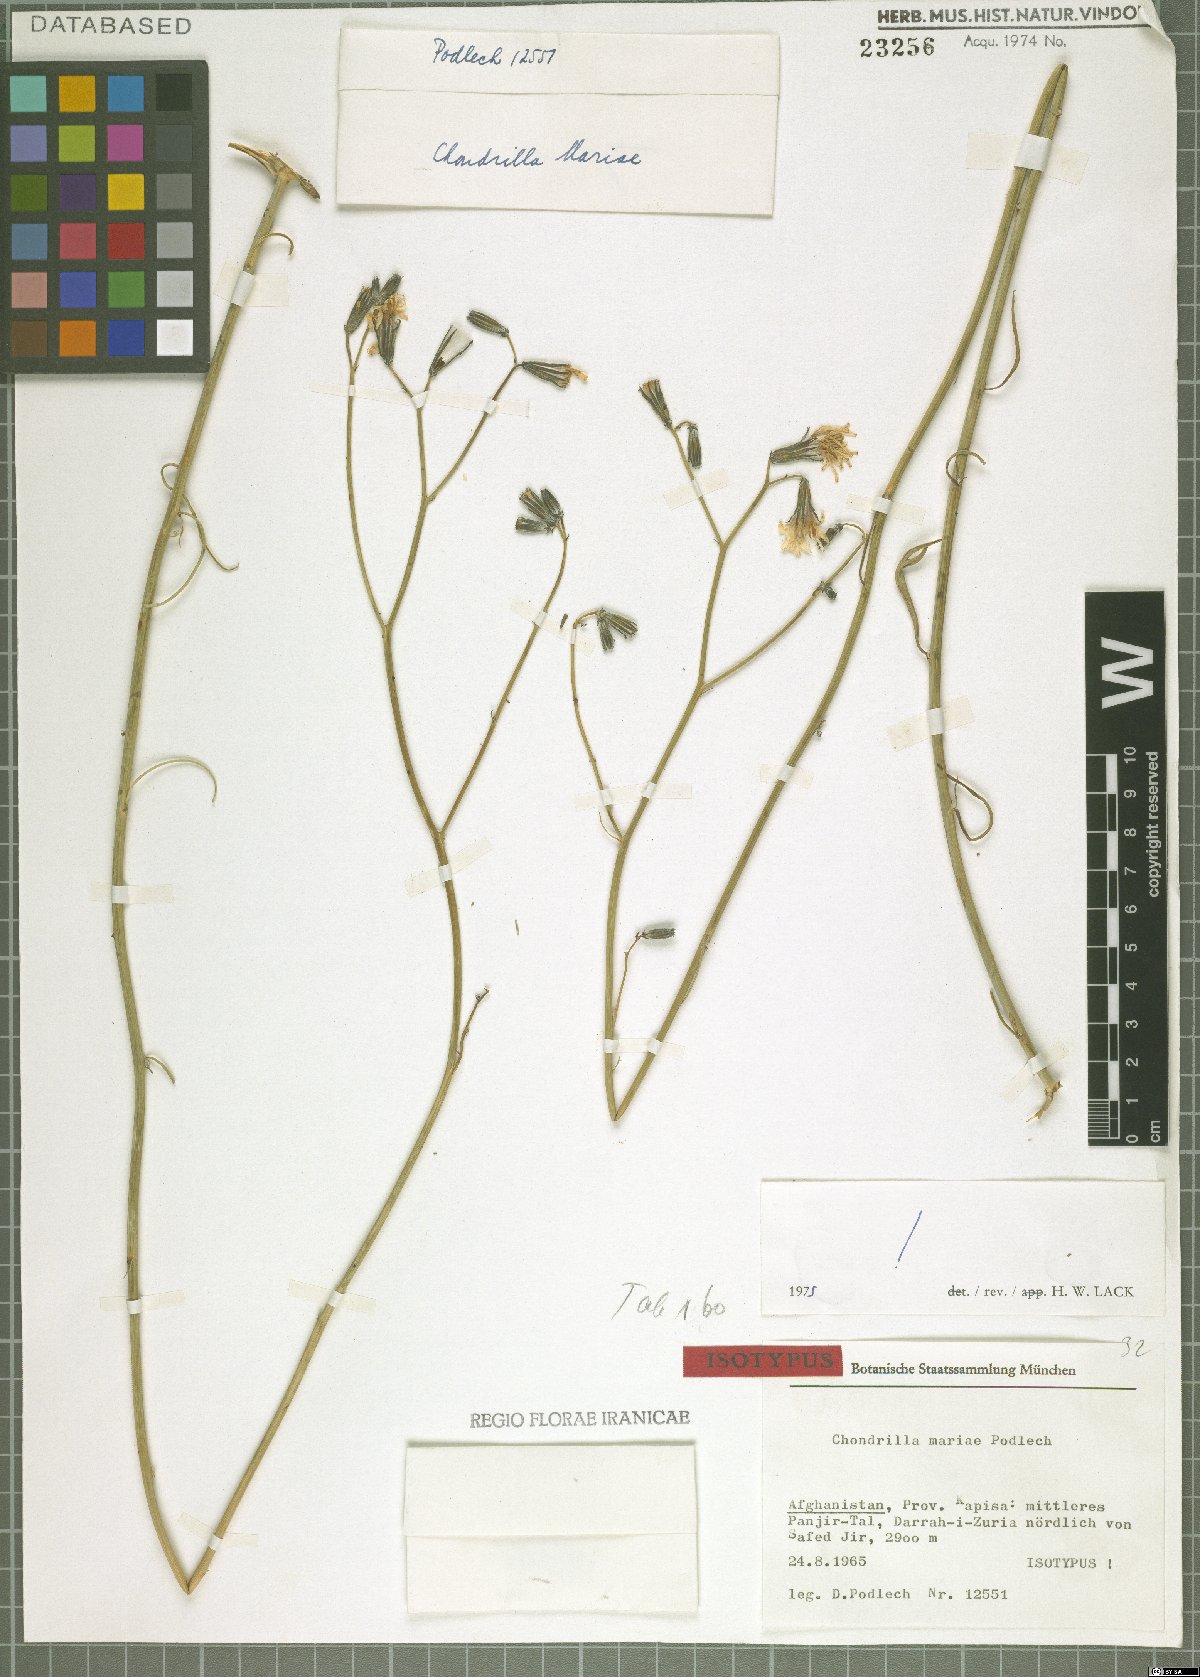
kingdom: Plantae
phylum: Tracheophyta
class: Magnoliopsida
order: Asterales
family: Asteraceae
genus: Chondrilla
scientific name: Chondrilla mariae
